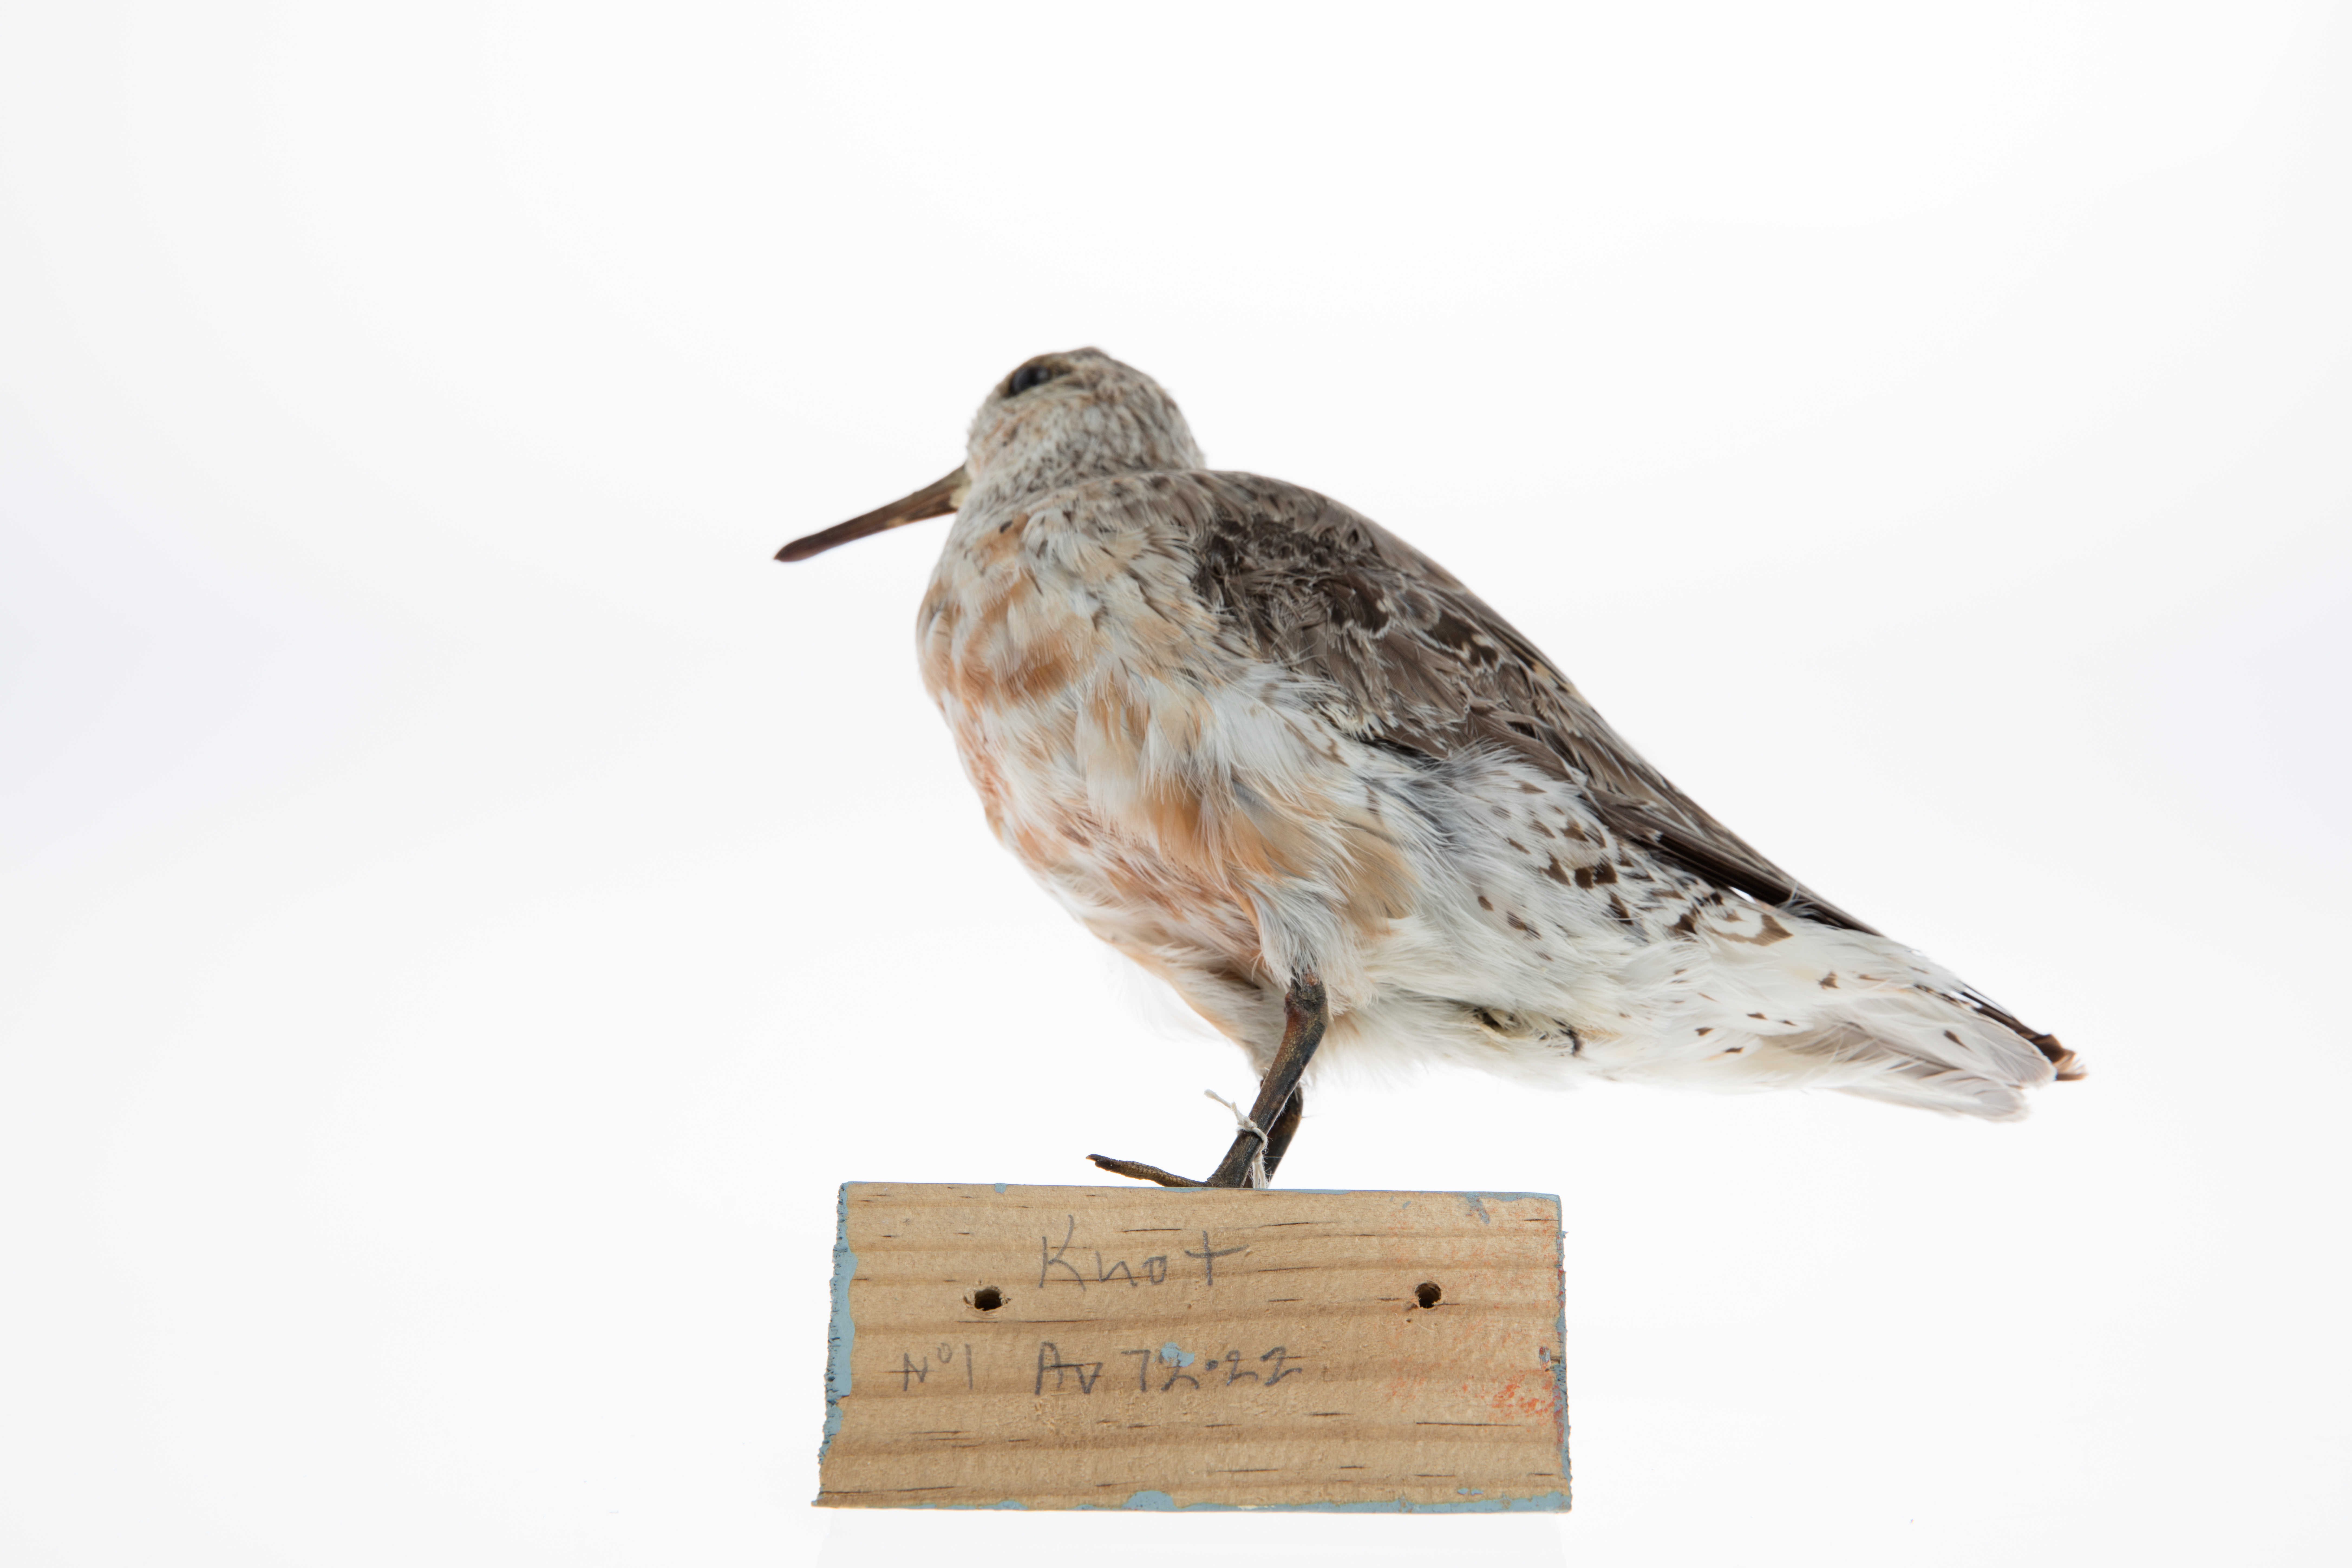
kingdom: Animalia
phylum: Chordata
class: Aves
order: Charadriiformes
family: Scolopacidae
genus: Calidris
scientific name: Calidris canutus
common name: Red knot
